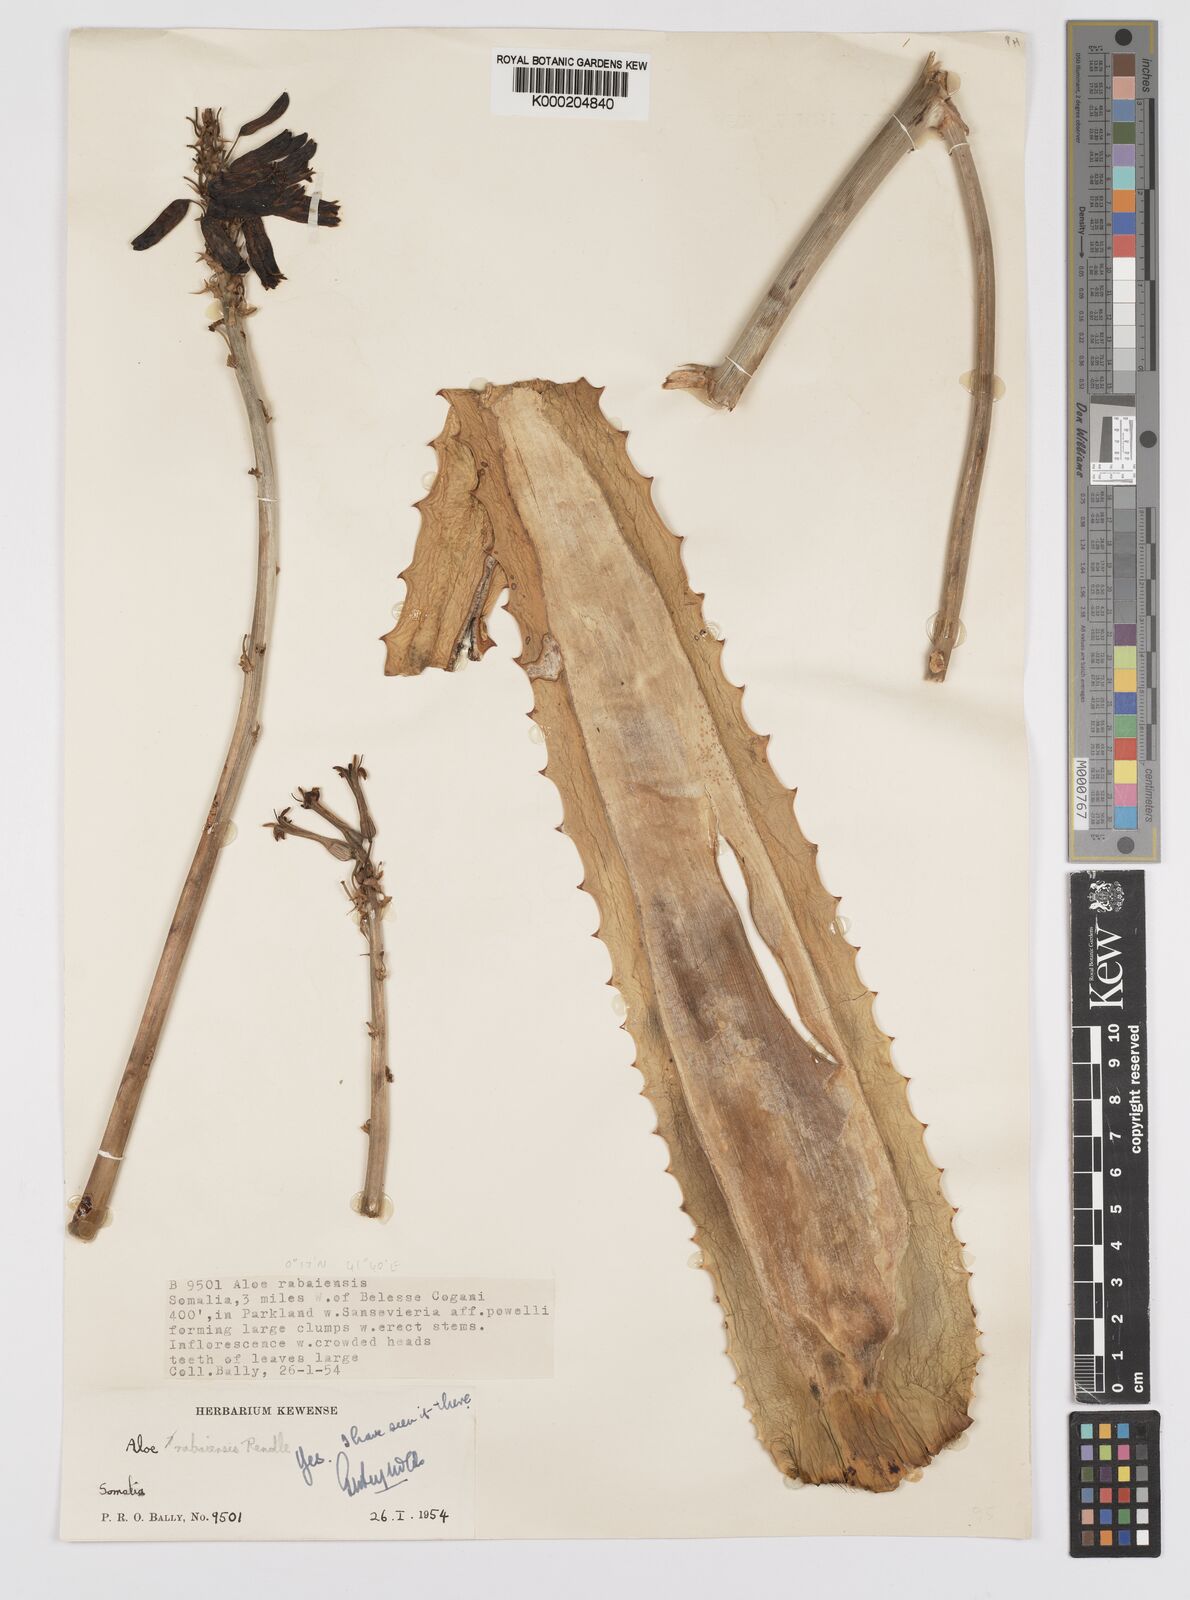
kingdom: Plantae
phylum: Tracheophyta
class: Liliopsida
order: Asparagales
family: Asphodelaceae
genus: Aloe
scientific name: Aloe rabaiensis
